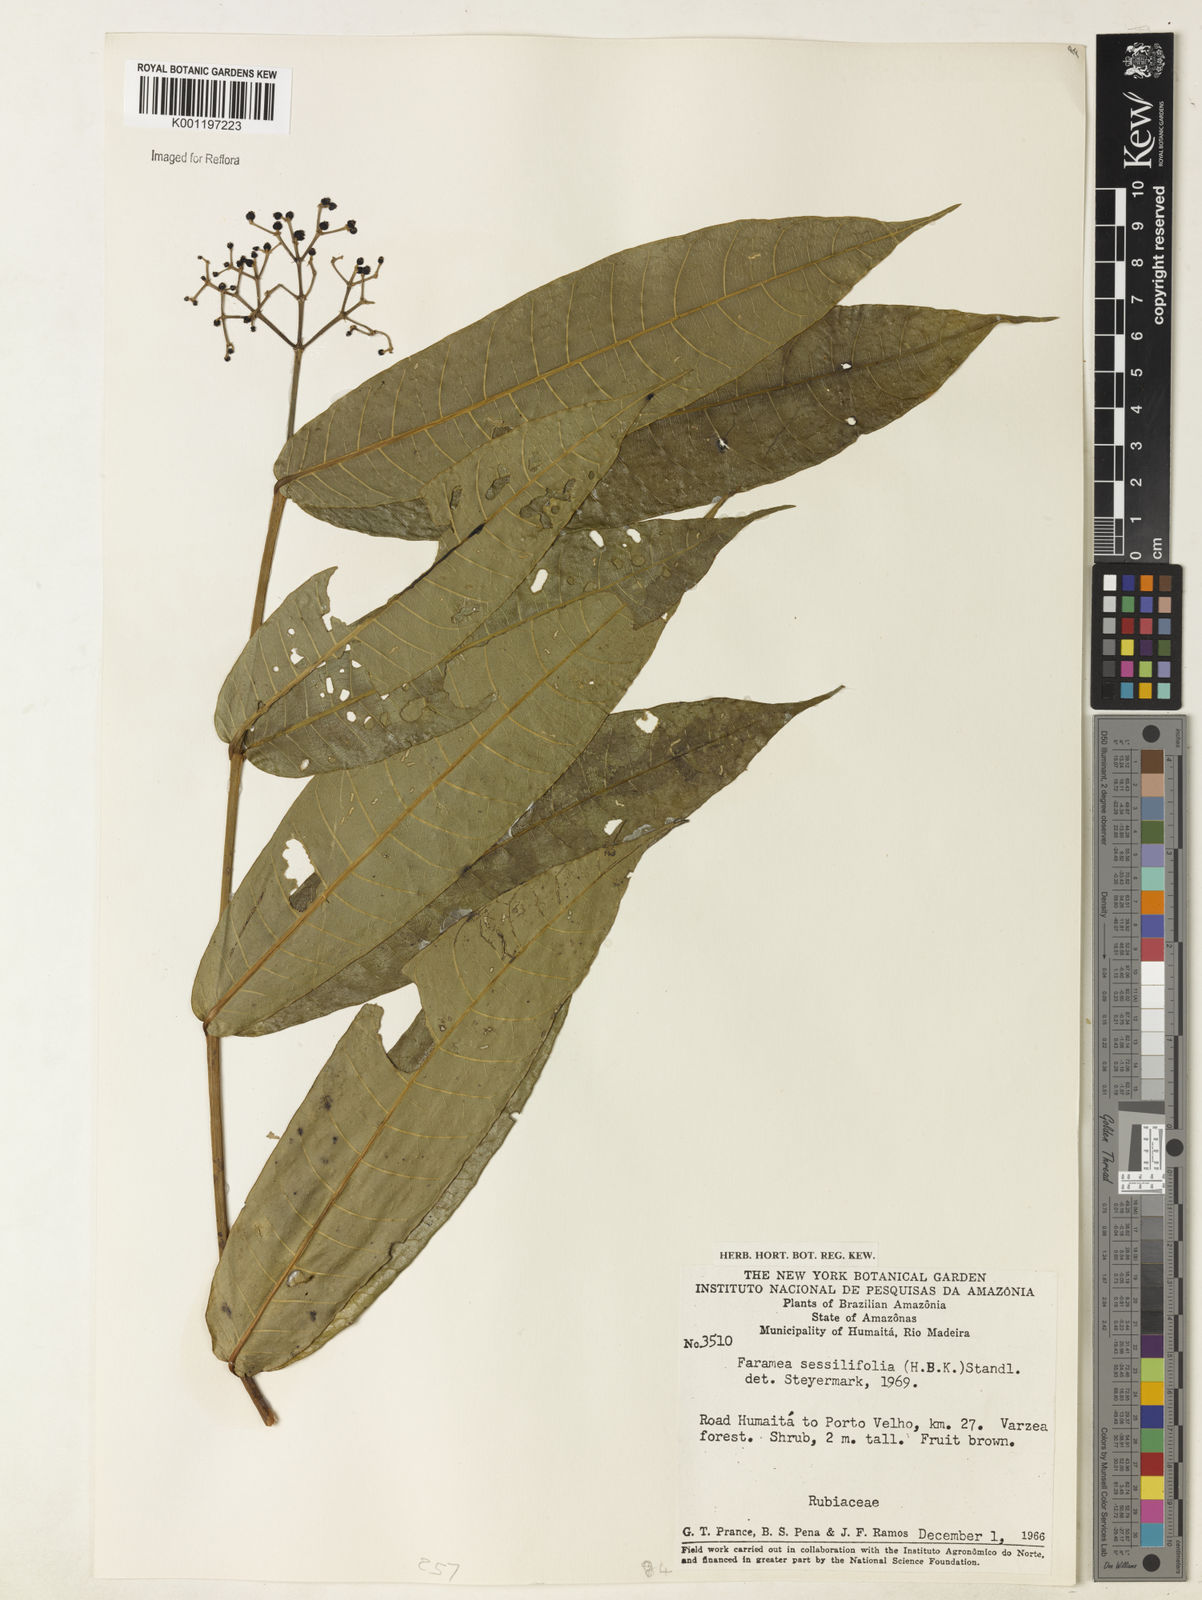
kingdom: Plantae
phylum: Tracheophyta
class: Magnoliopsida
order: Gentianales
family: Rubiaceae
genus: Faramea
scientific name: Faramea sessilifolia
